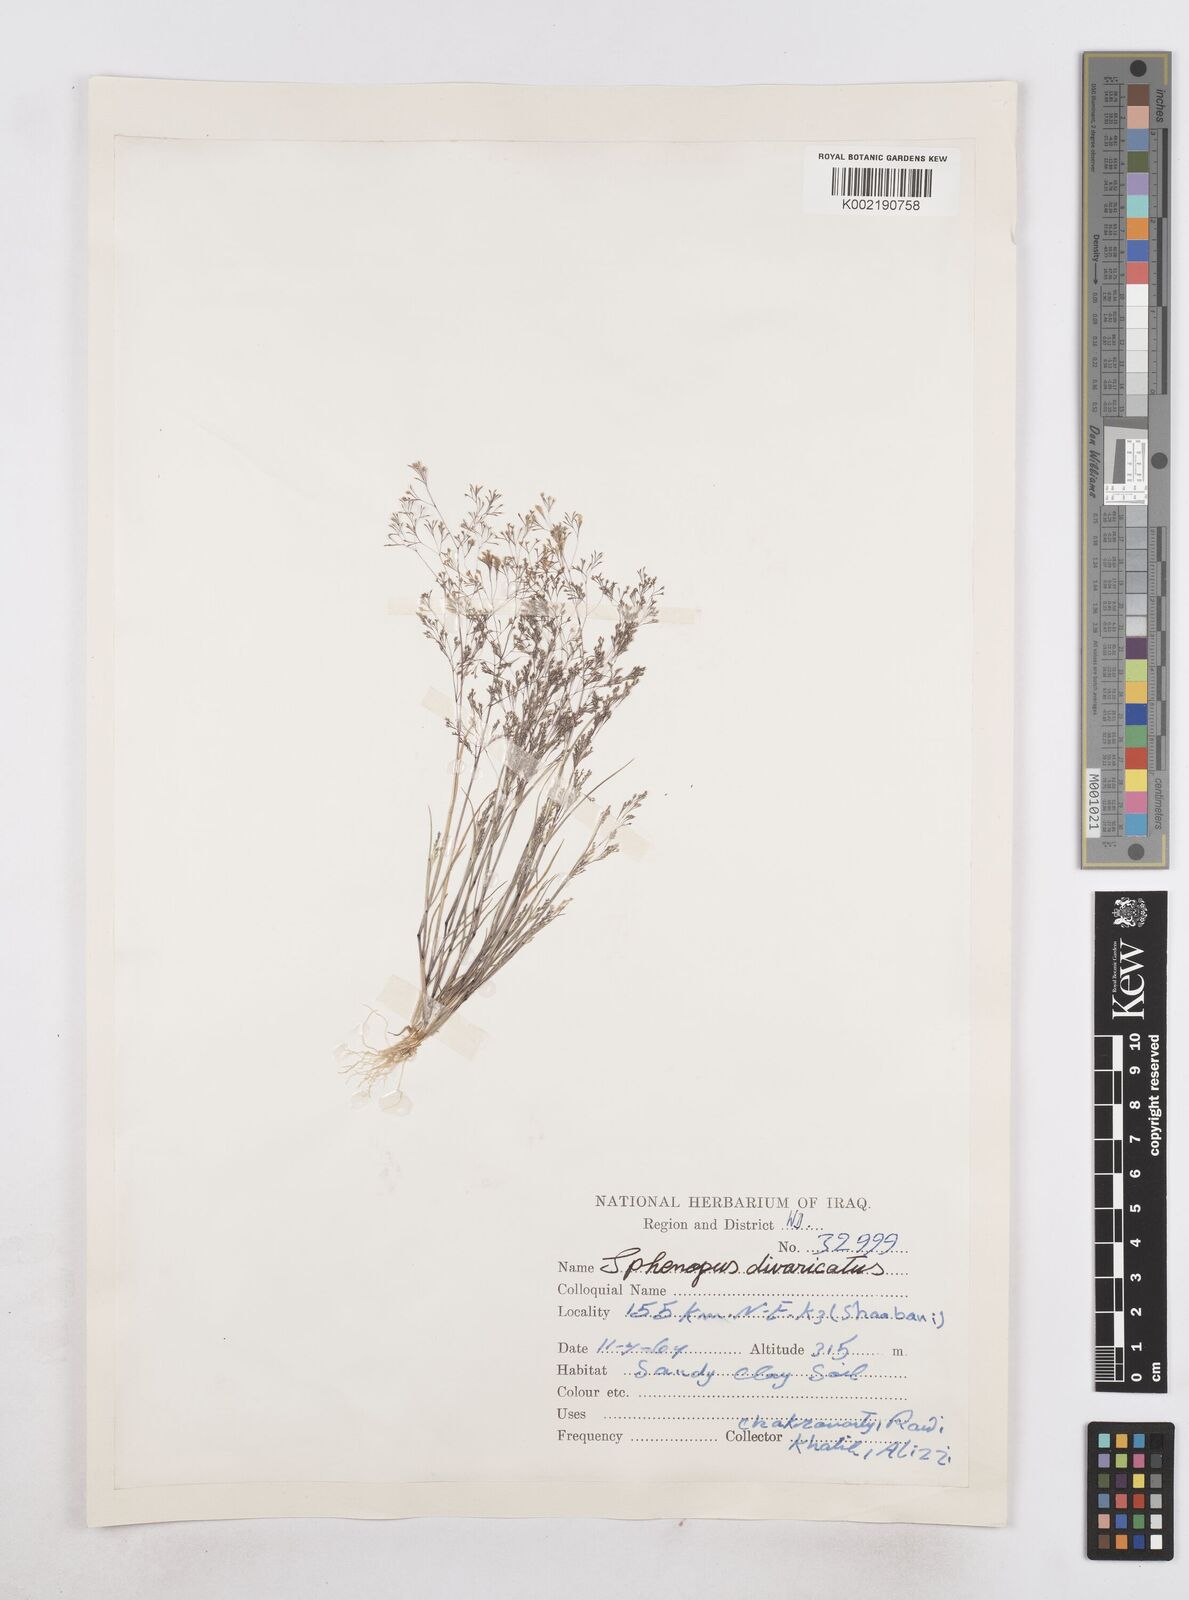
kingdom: Plantae
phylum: Tracheophyta
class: Liliopsida
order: Poales
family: Poaceae
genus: Sphenopus
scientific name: Sphenopus divaricatus
